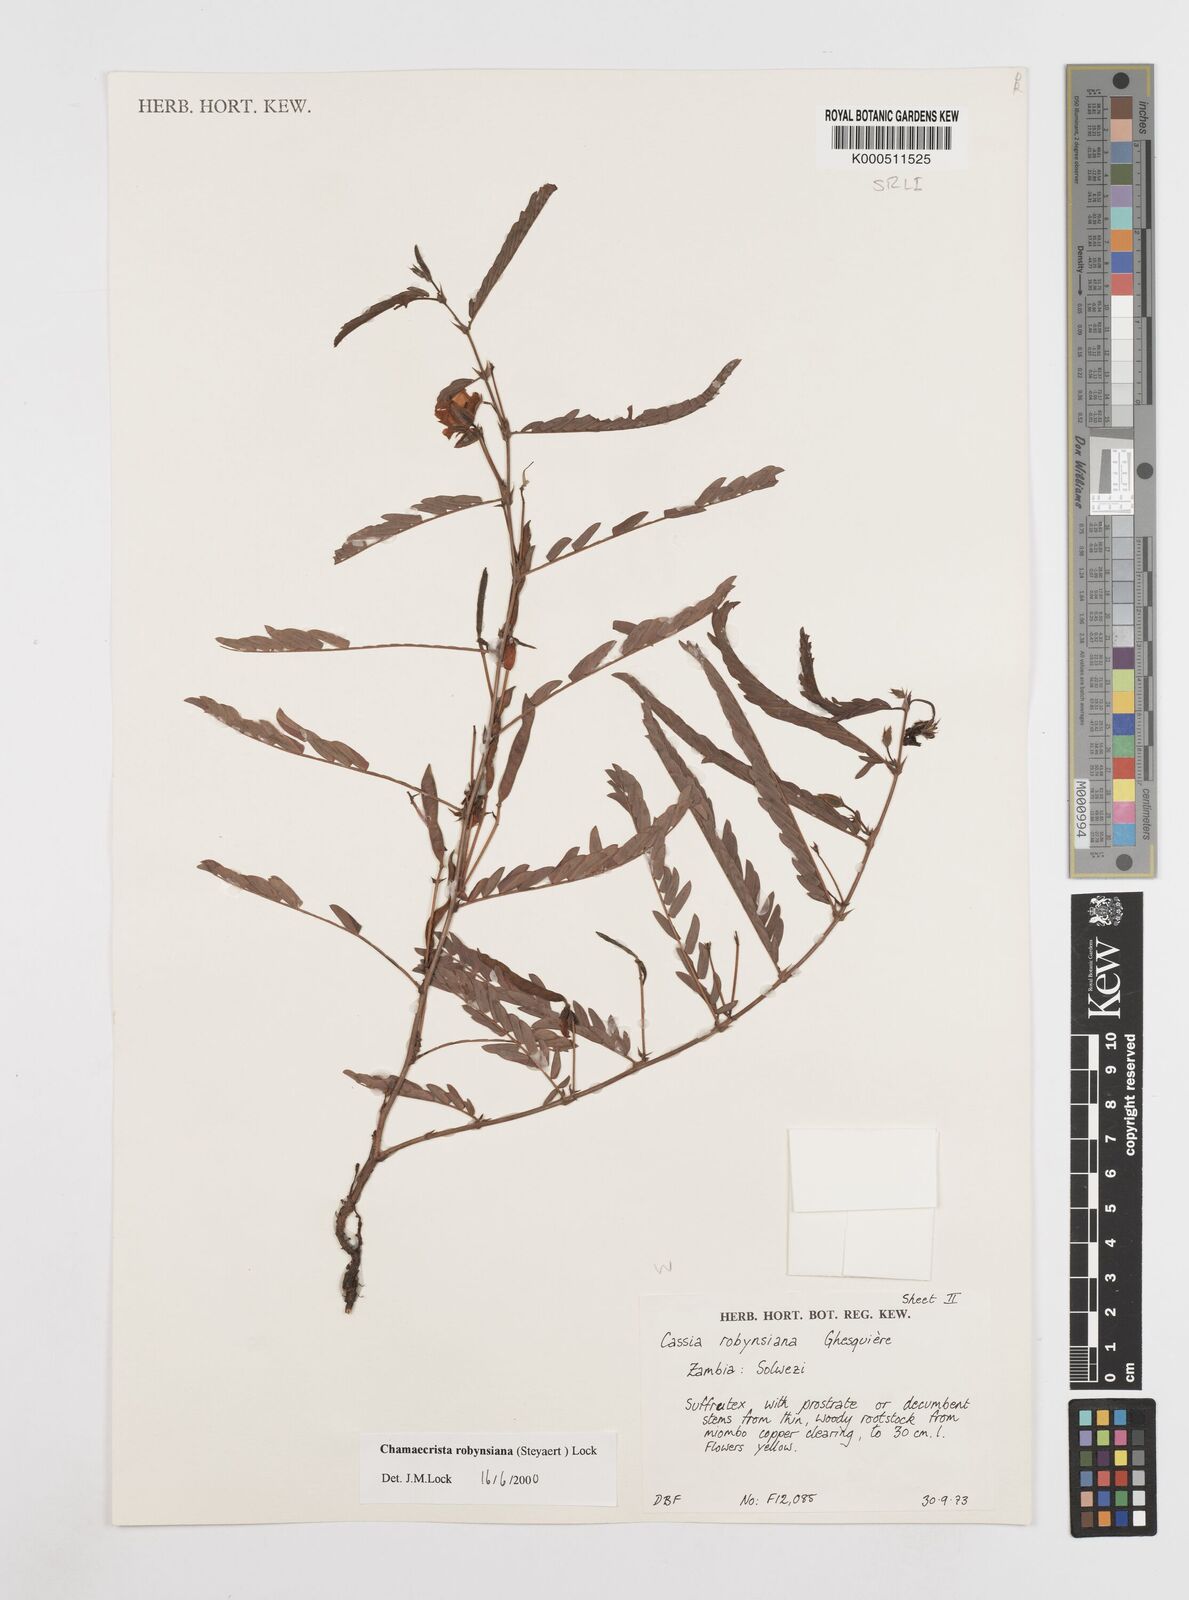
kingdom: Plantae
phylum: Tracheophyta
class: Magnoliopsida
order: Fabales
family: Fabaceae
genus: Chamaecrista
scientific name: Chamaecrista robynsiana
